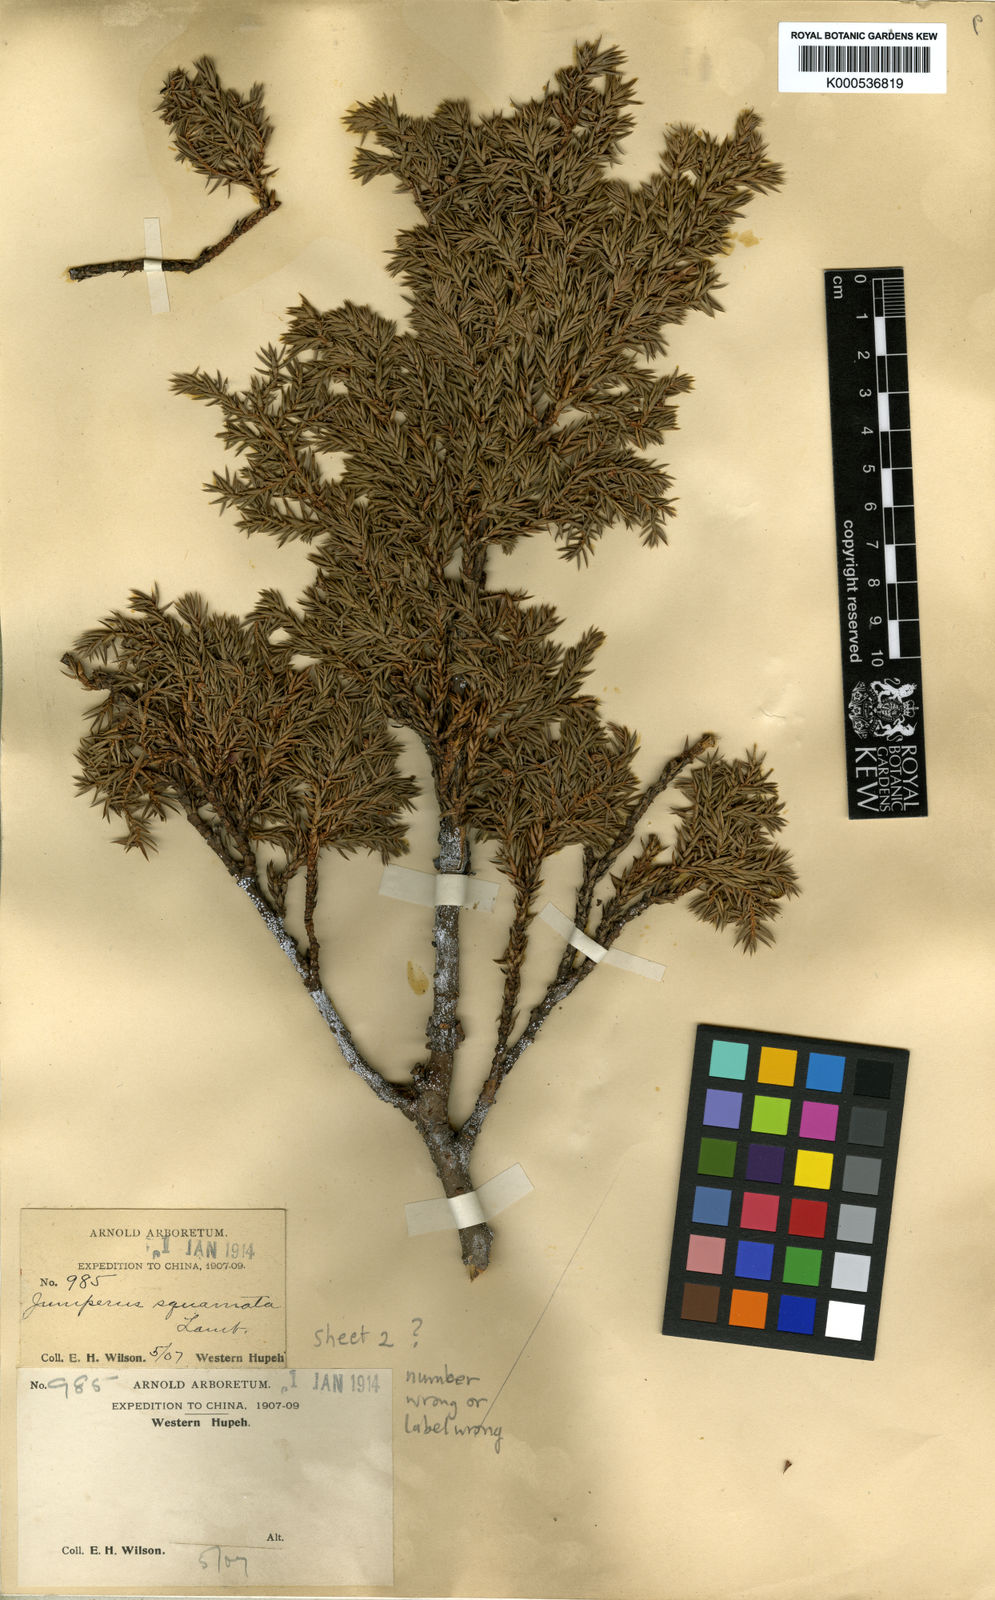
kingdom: Plantae
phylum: Tracheophyta
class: Pinopsida
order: Pinales
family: Cupressaceae
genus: Juniperus
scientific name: Juniperus
